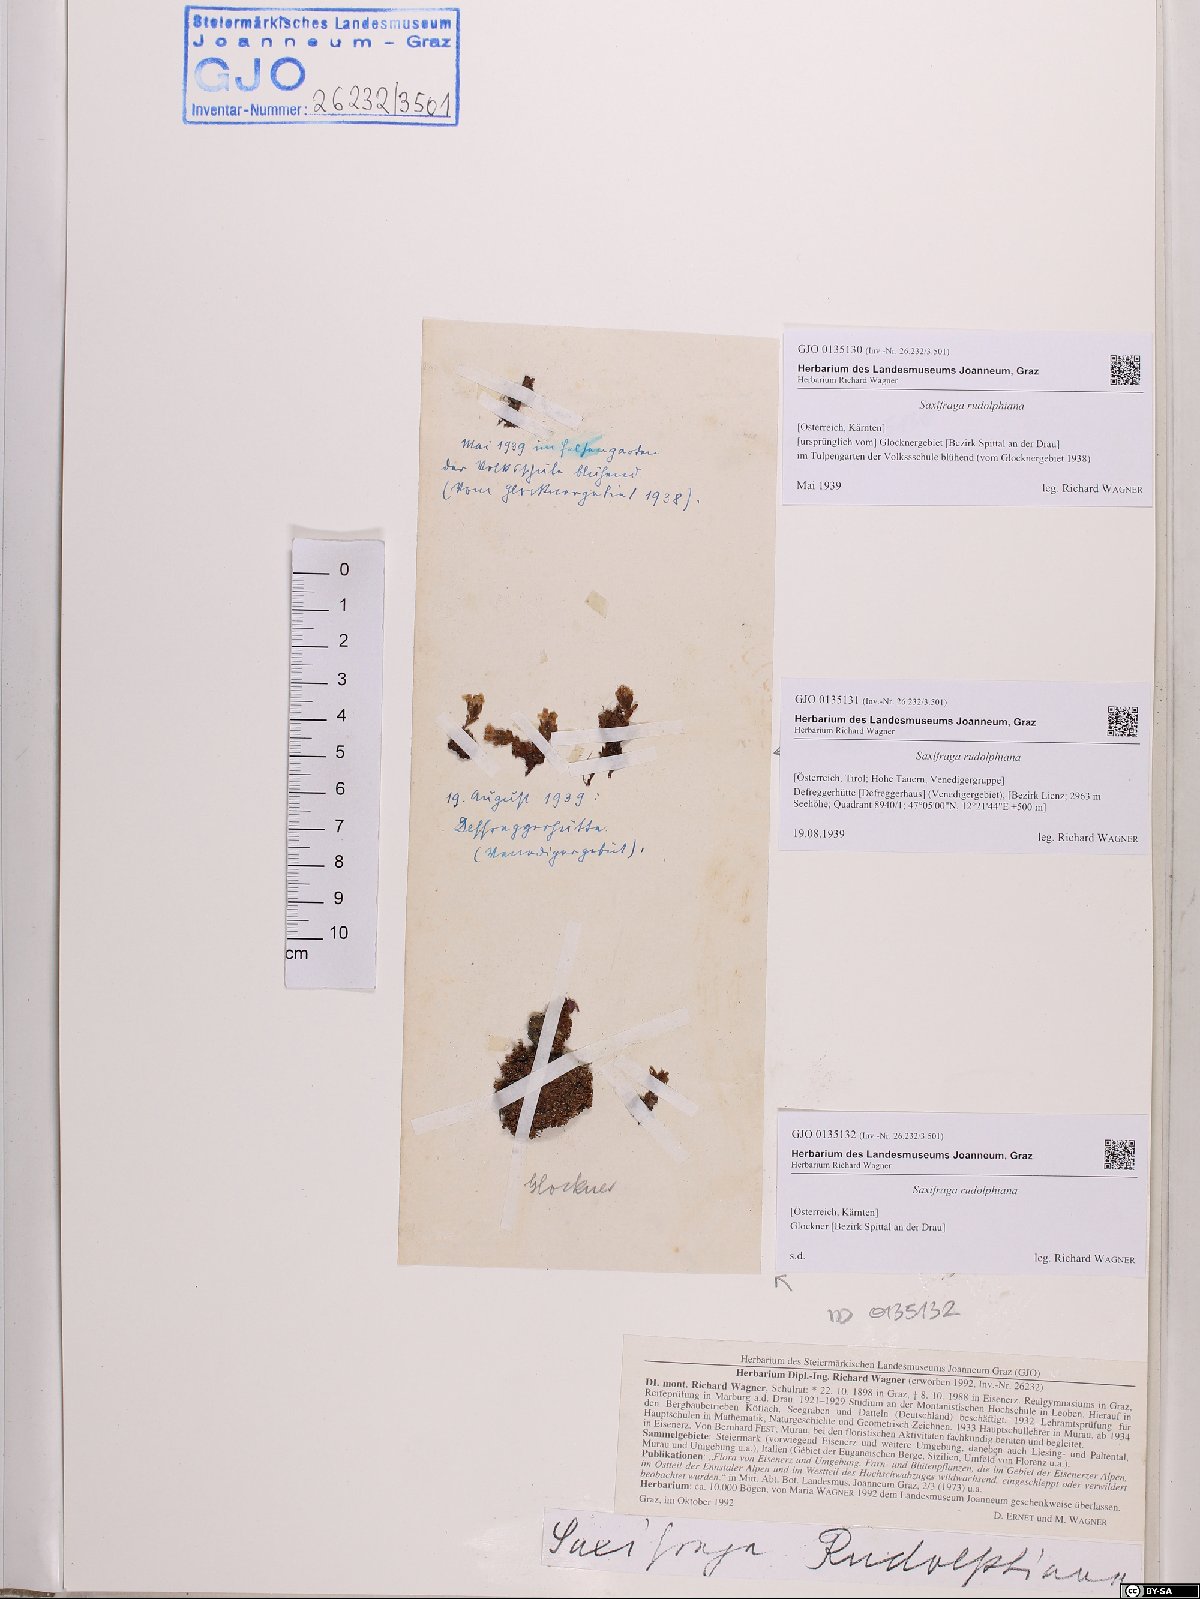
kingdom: Plantae
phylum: Tracheophyta
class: Magnoliopsida
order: Saxifragales
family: Saxifragaceae
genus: Saxifraga
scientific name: Saxifraga oppositifolia
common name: Purple saxifrage
